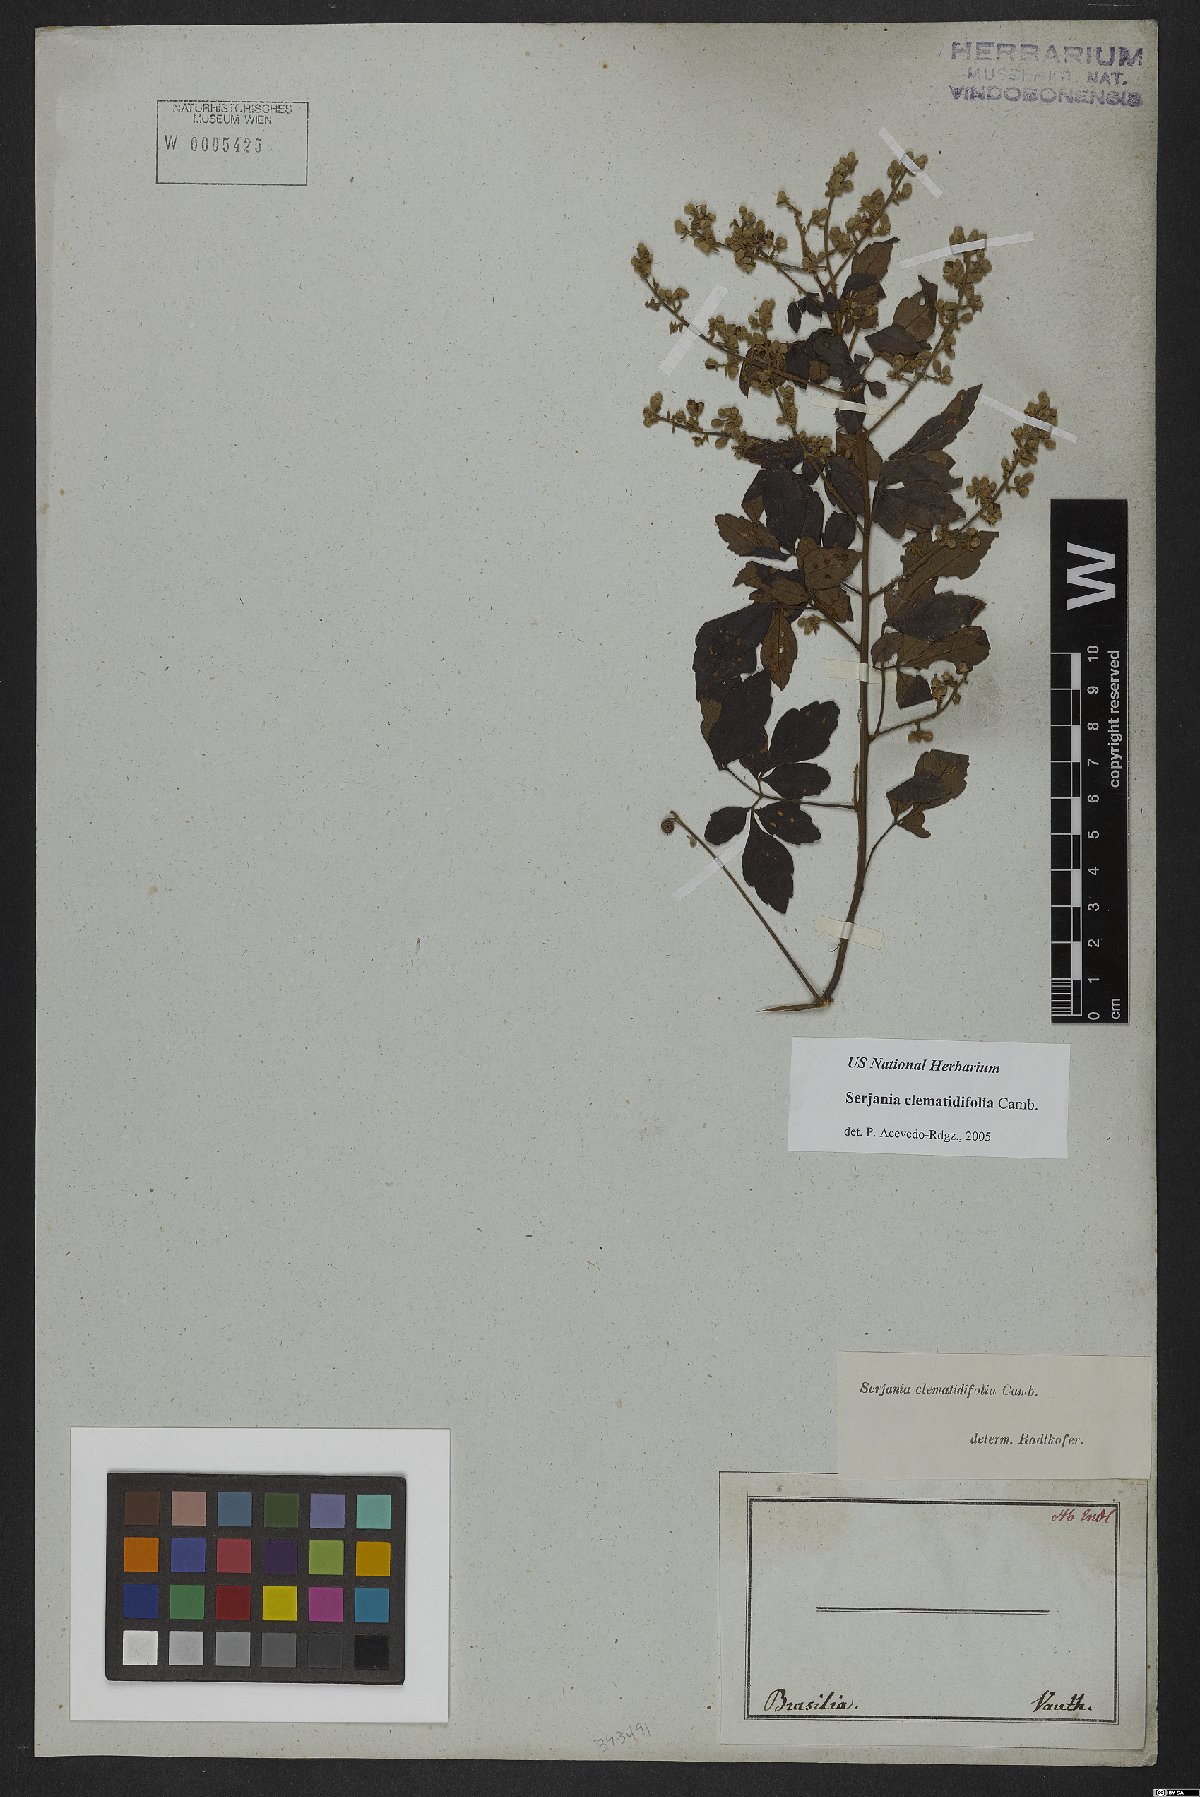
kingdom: Plantae
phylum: Tracheophyta
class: Magnoliopsida
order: Sapindales
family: Sapindaceae
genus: Serjania
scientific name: Serjania clematidifolia
